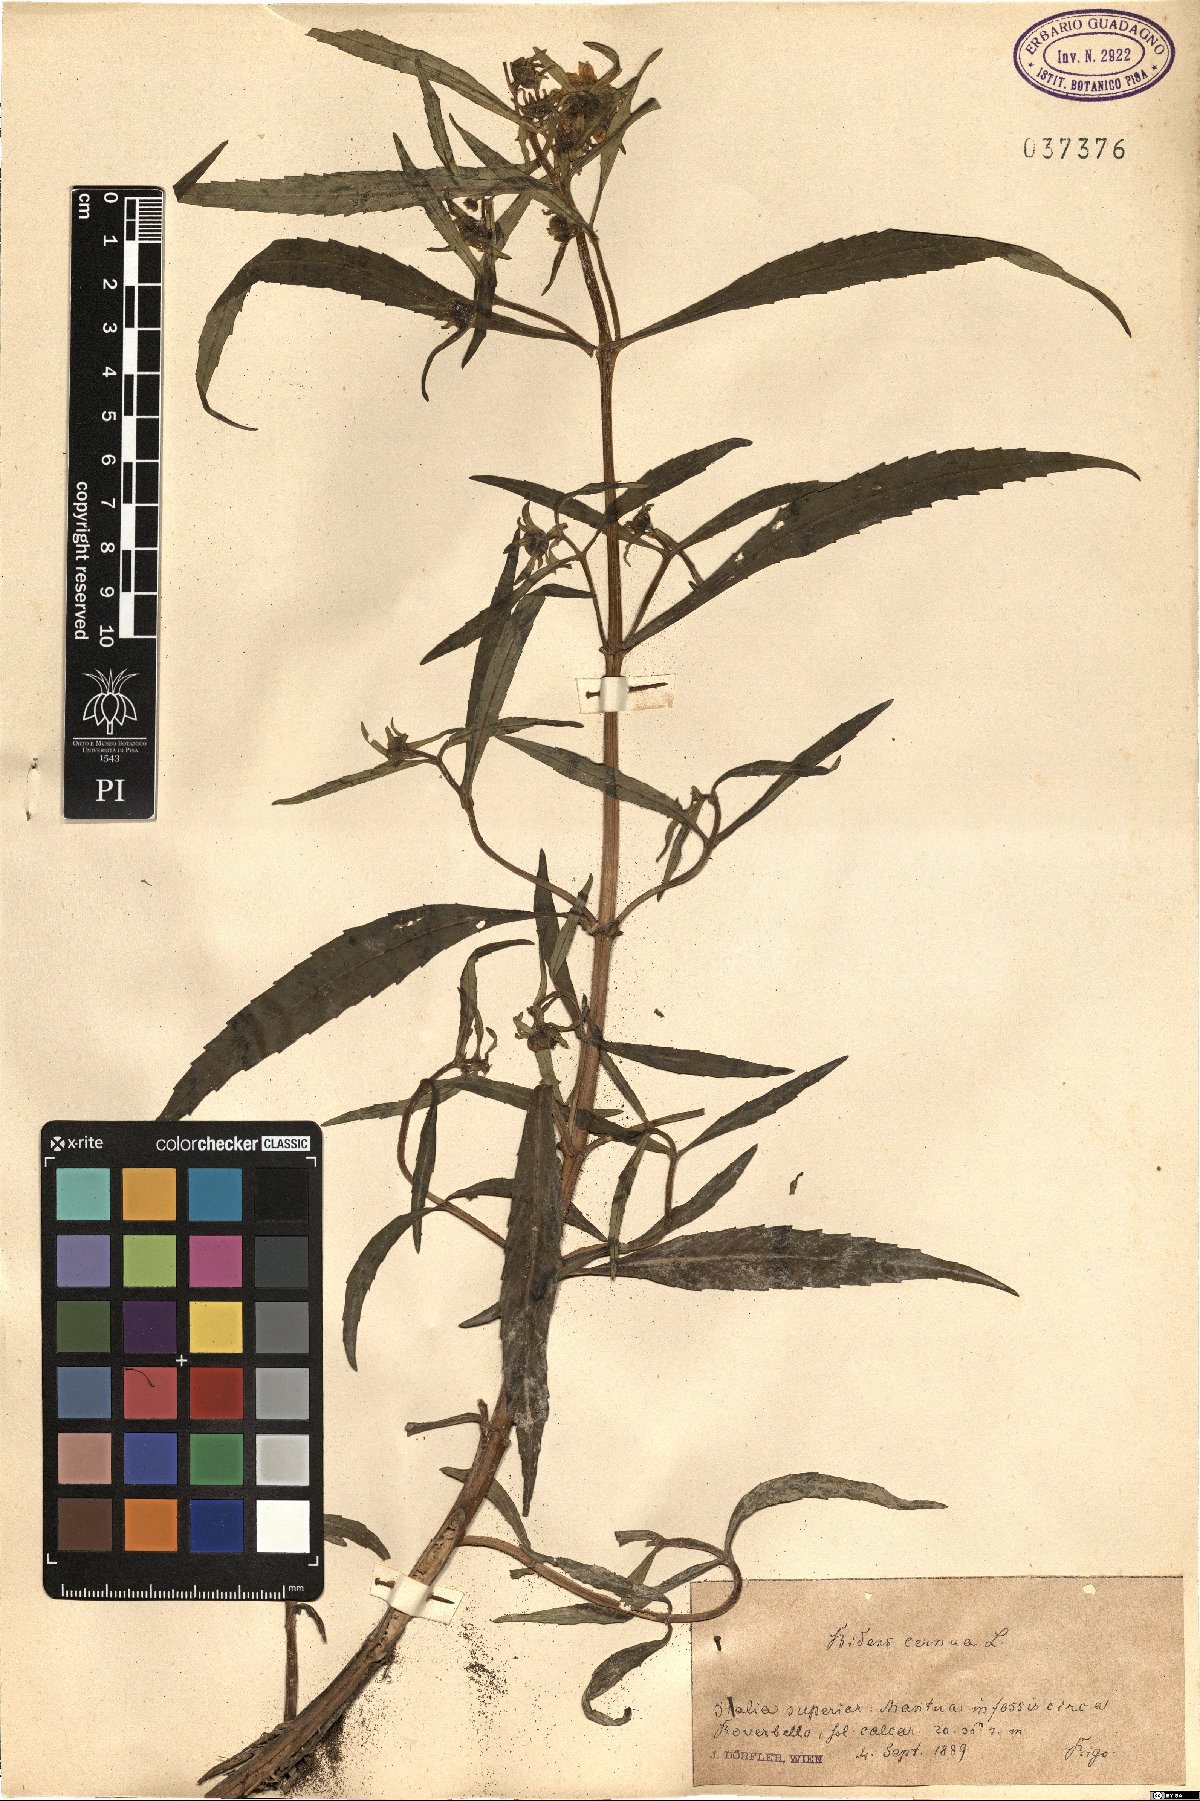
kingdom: Plantae
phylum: Tracheophyta
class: Magnoliopsida
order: Asterales
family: Asteraceae
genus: Bidens
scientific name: Bidens cernua
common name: Nodding bur-marigold
